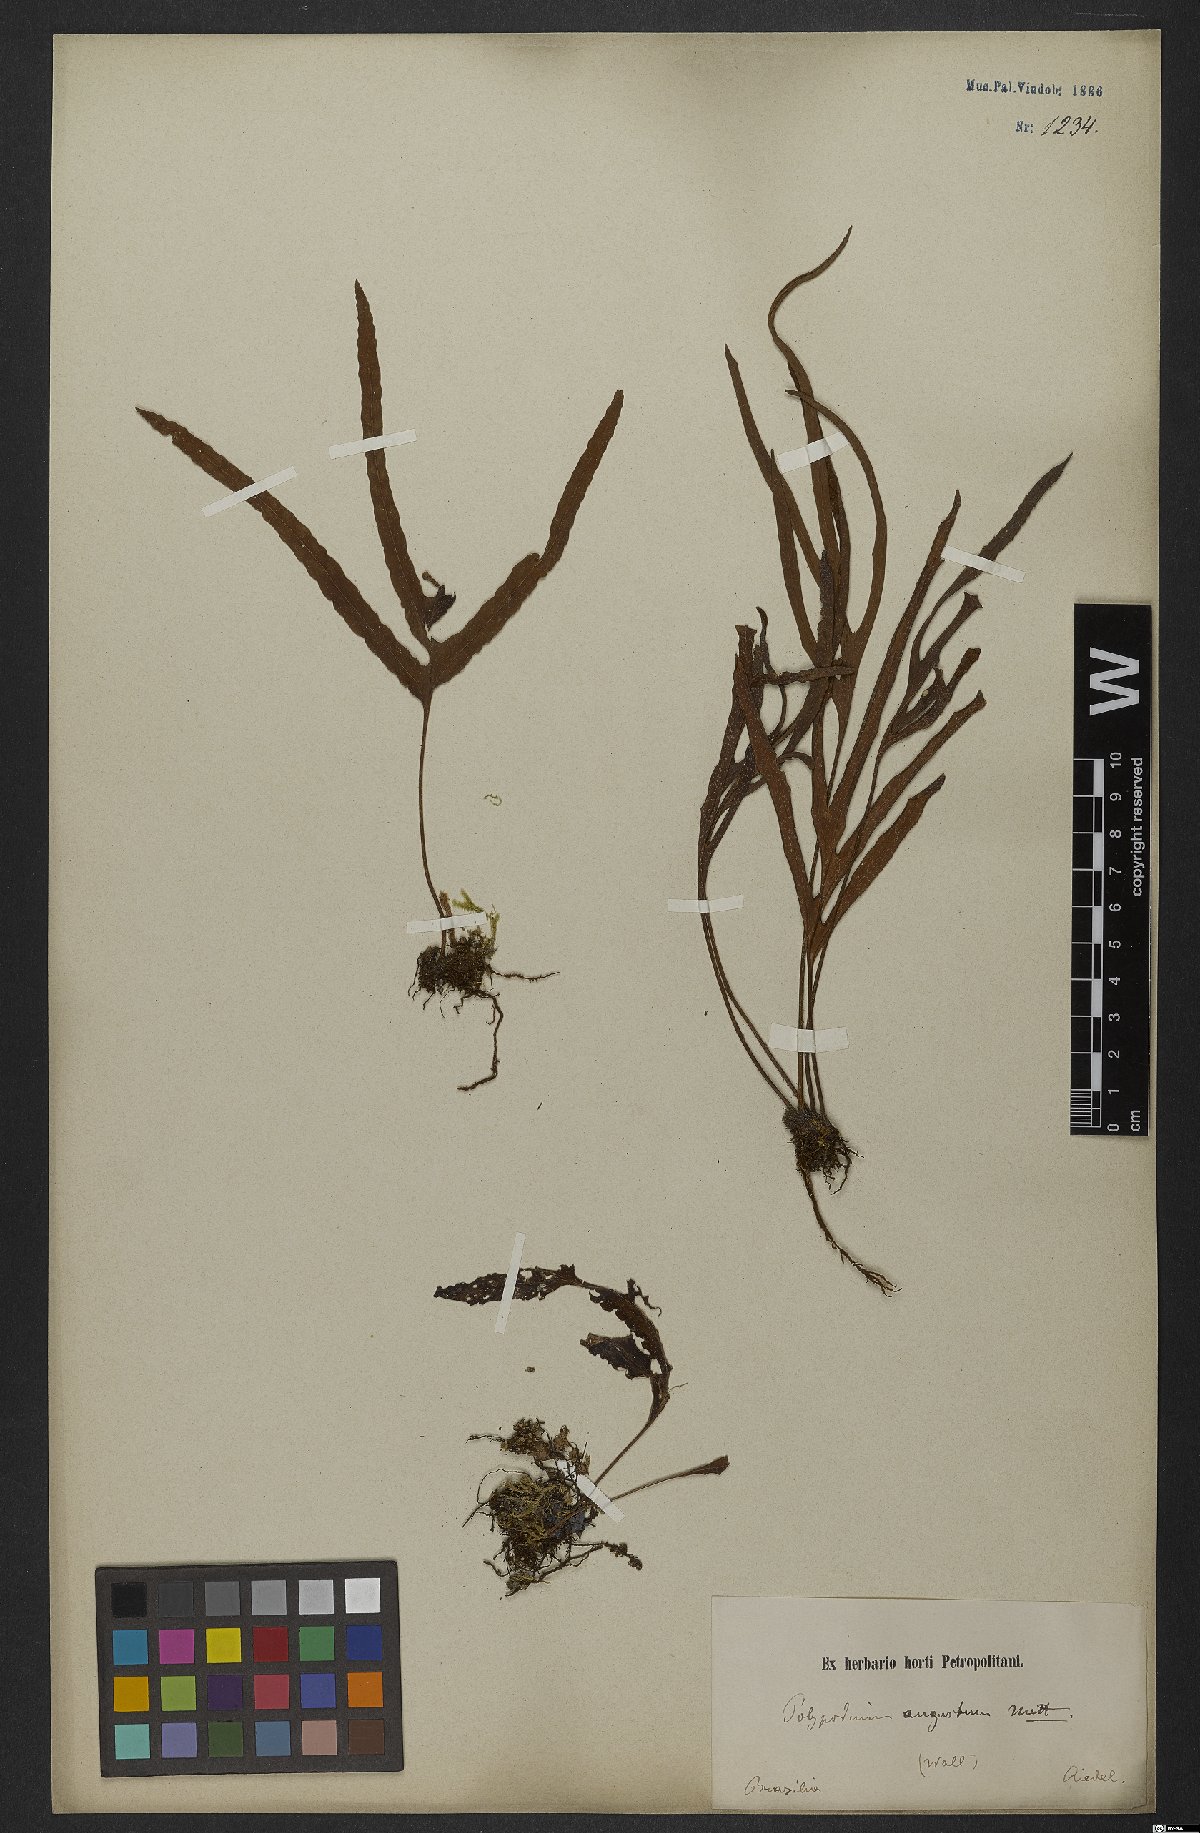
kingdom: Plantae
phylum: Tracheophyta
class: Polypodiopsida
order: Polypodiales
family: Polypodiaceae
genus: Pleopeltis
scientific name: Pleopeltis angusta
